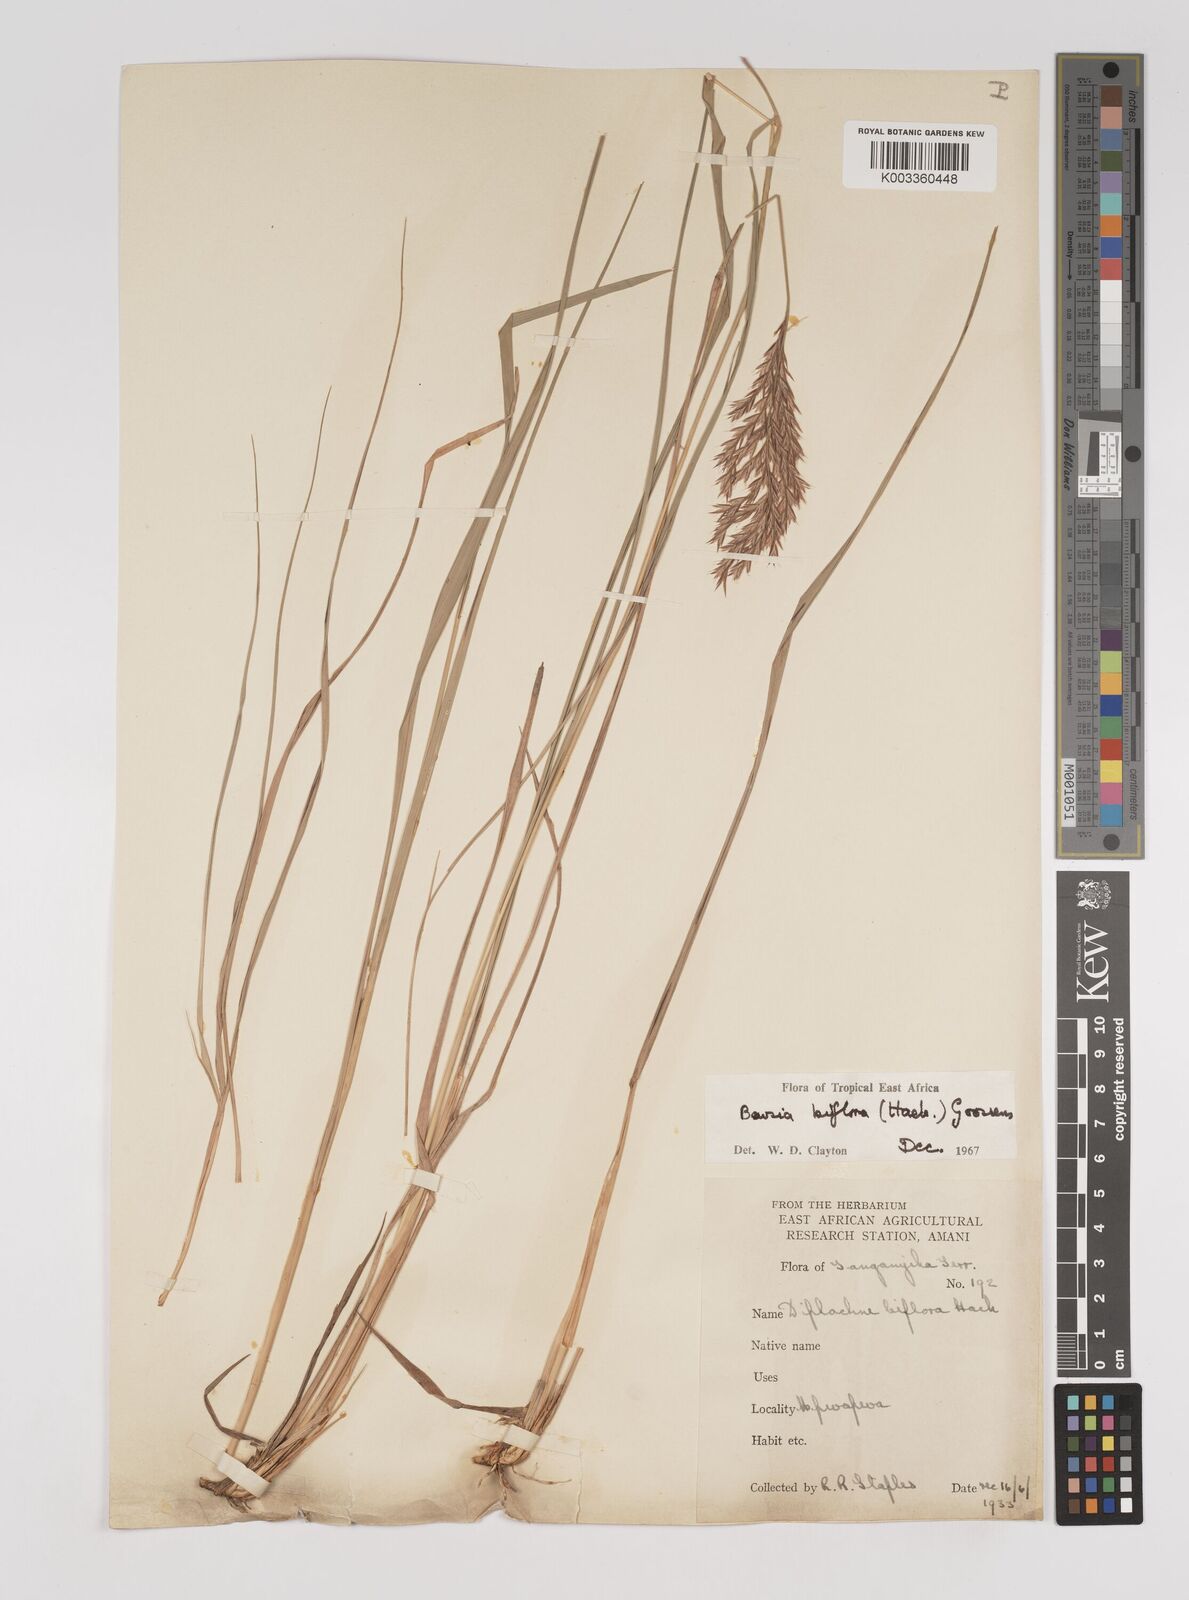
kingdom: Plantae
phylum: Tracheophyta
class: Liliopsida
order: Poales
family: Poaceae
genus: Bewsia
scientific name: Bewsia biflora
